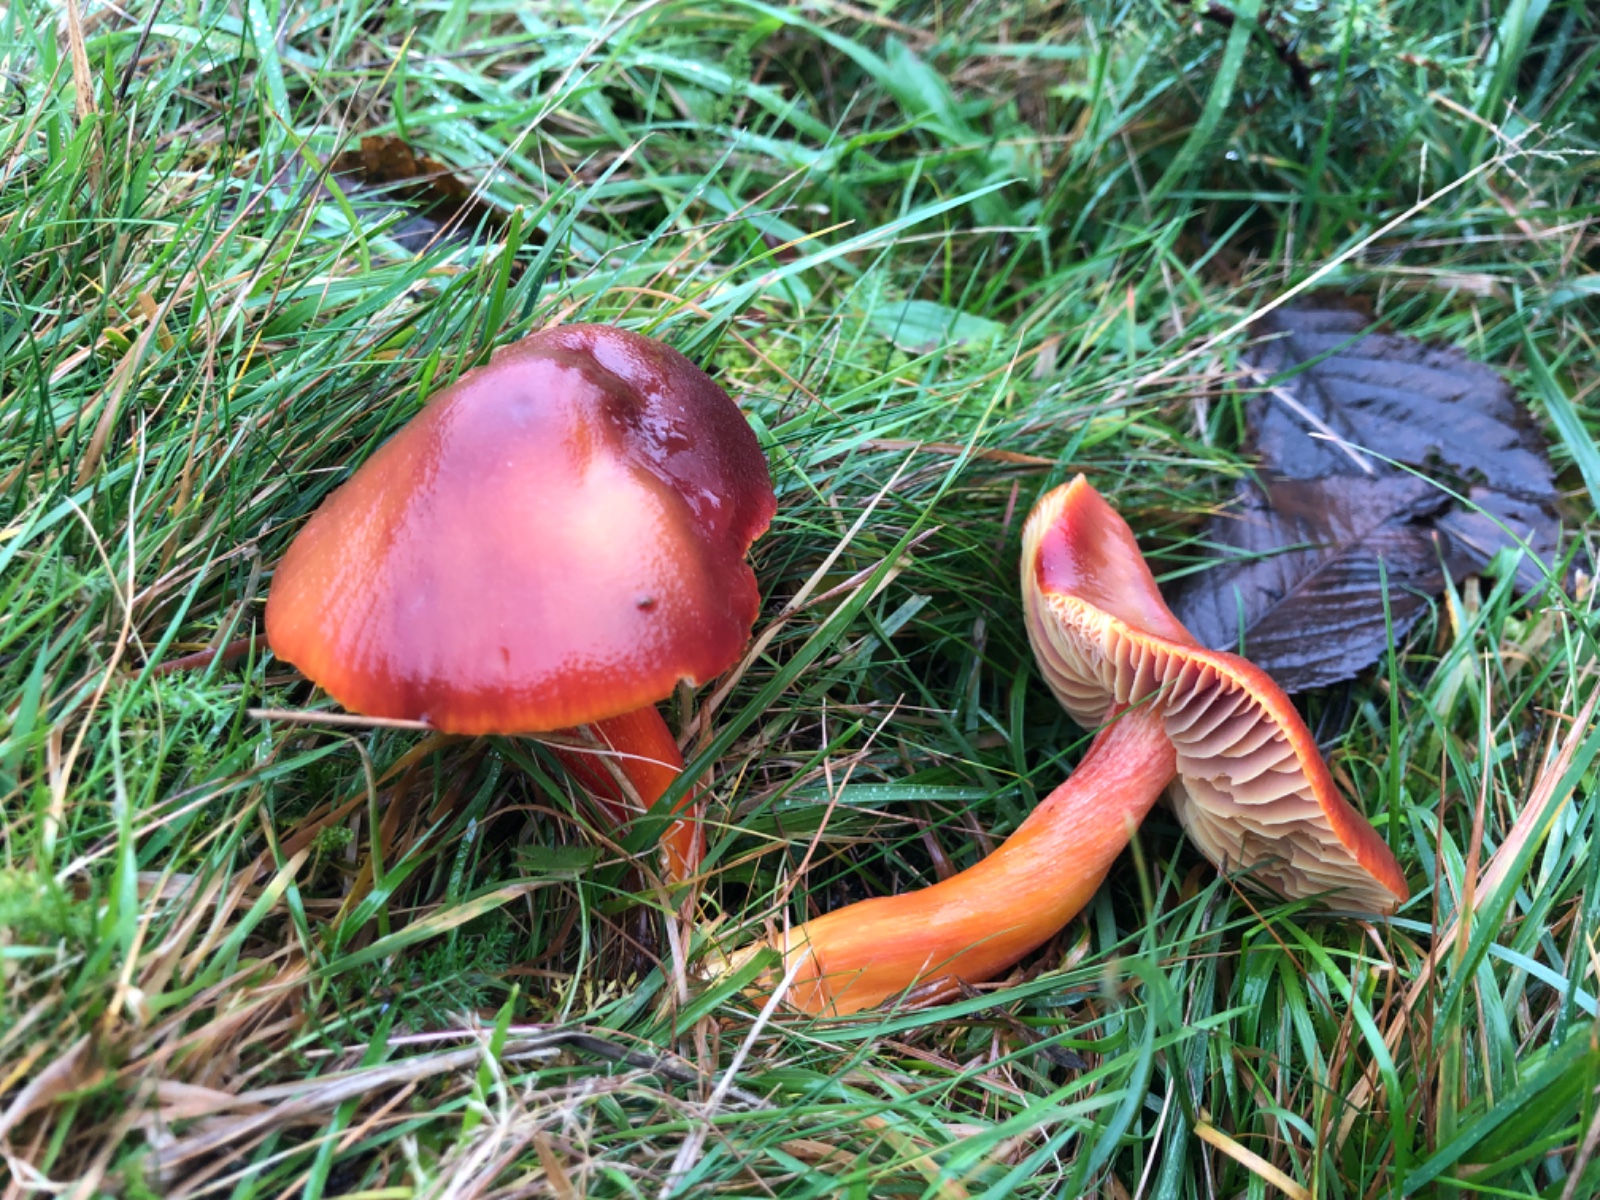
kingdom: Fungi
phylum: Basidiomycota
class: Agaricomycetes
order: Agaricales
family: Hygrophoraceae
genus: Hygrocybe
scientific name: Hygrocybe punicea
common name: skarlagen-vokshat
